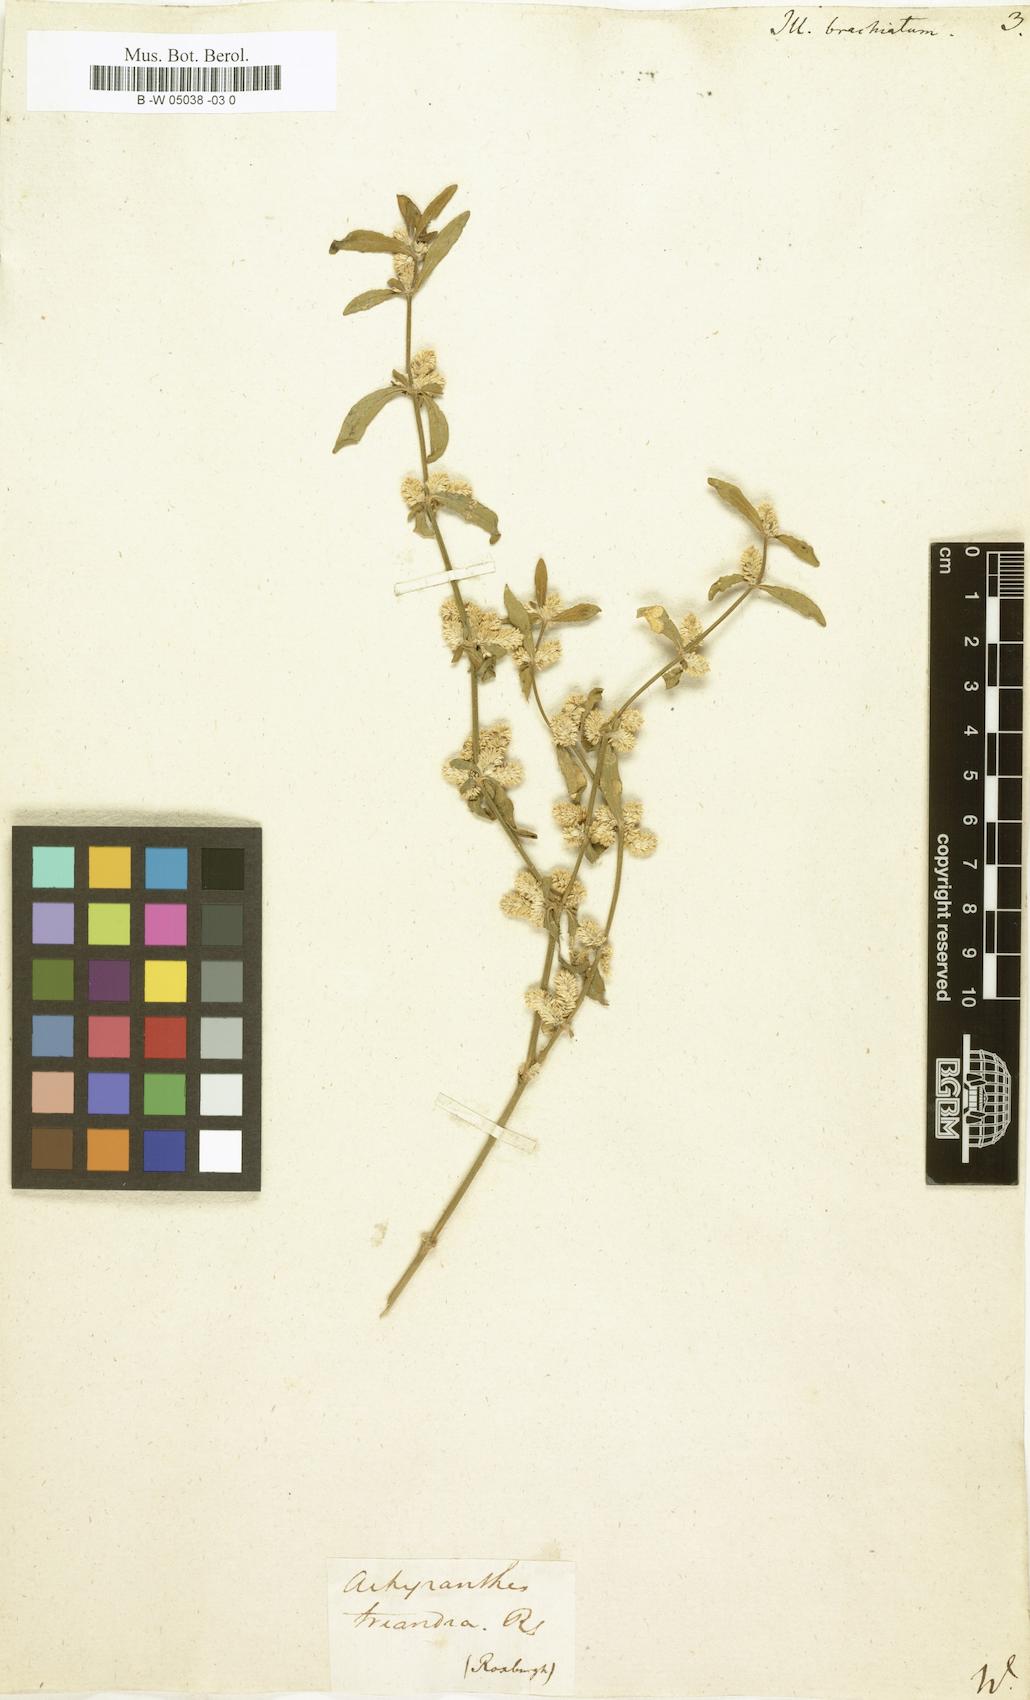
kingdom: Plantae
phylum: Tracheophyta
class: Magnoliopsida
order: Caryophyllales
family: Amaranthaceae
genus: Nothosaerva
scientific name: Nothosaerva brachiata
